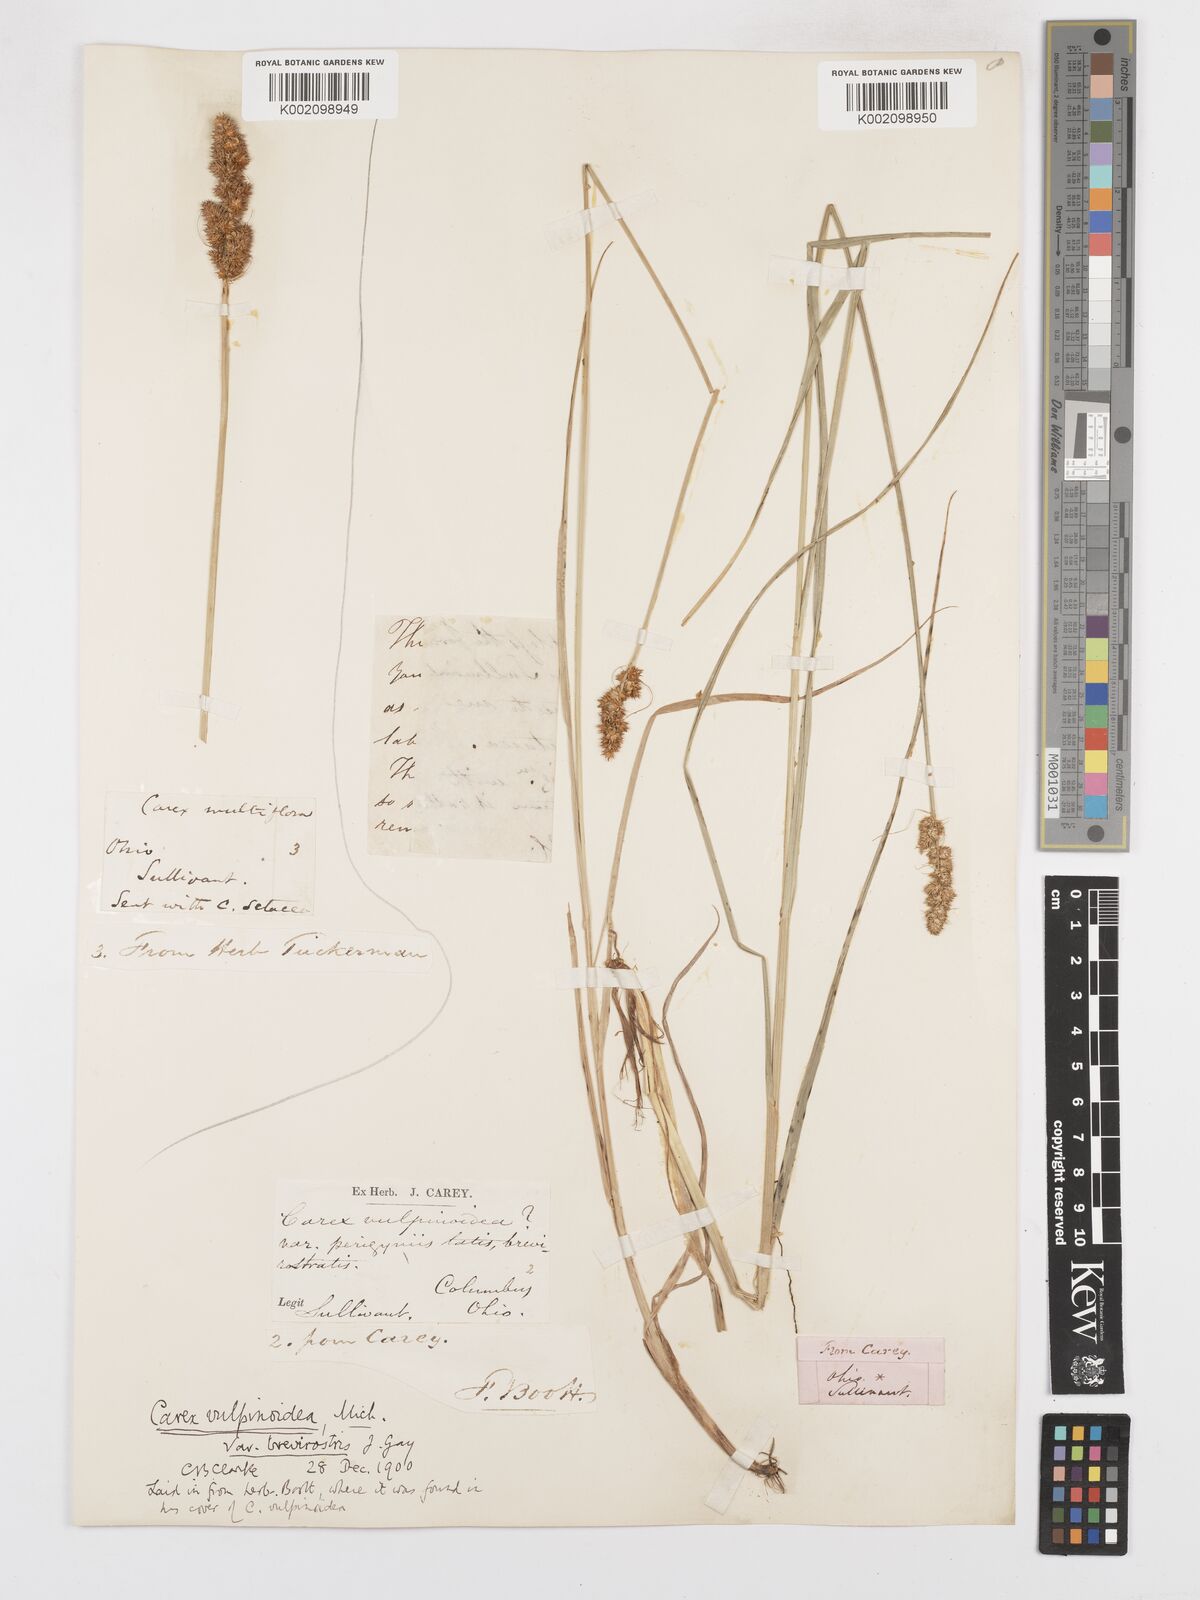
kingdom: Plantae
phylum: Tracheophyta
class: Liliopsida
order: Poales
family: Cyperaceae
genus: Carex
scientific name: Carex vulpinoidea
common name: American fox-sedge
